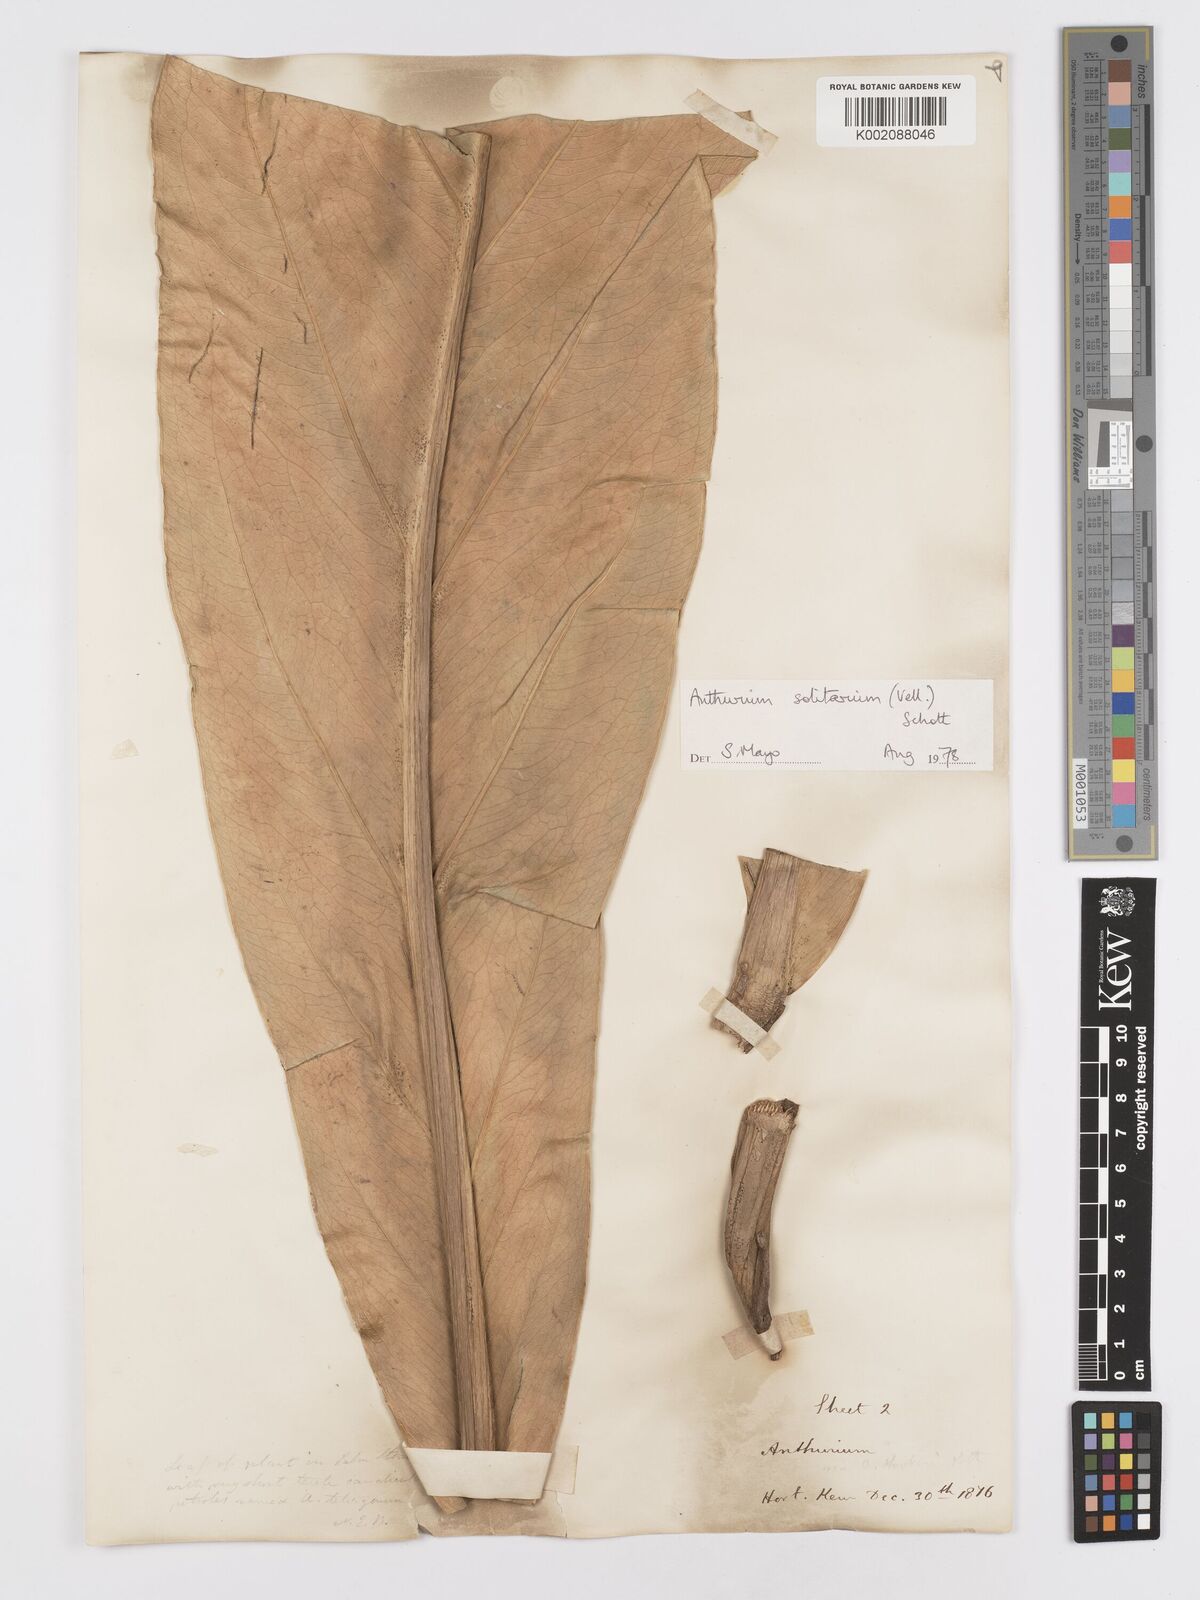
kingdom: Plantae
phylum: Tracheophyta
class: Liliopsida
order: Alismatales
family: Araceae
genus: Anthurium
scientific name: Anthurium solitarium
